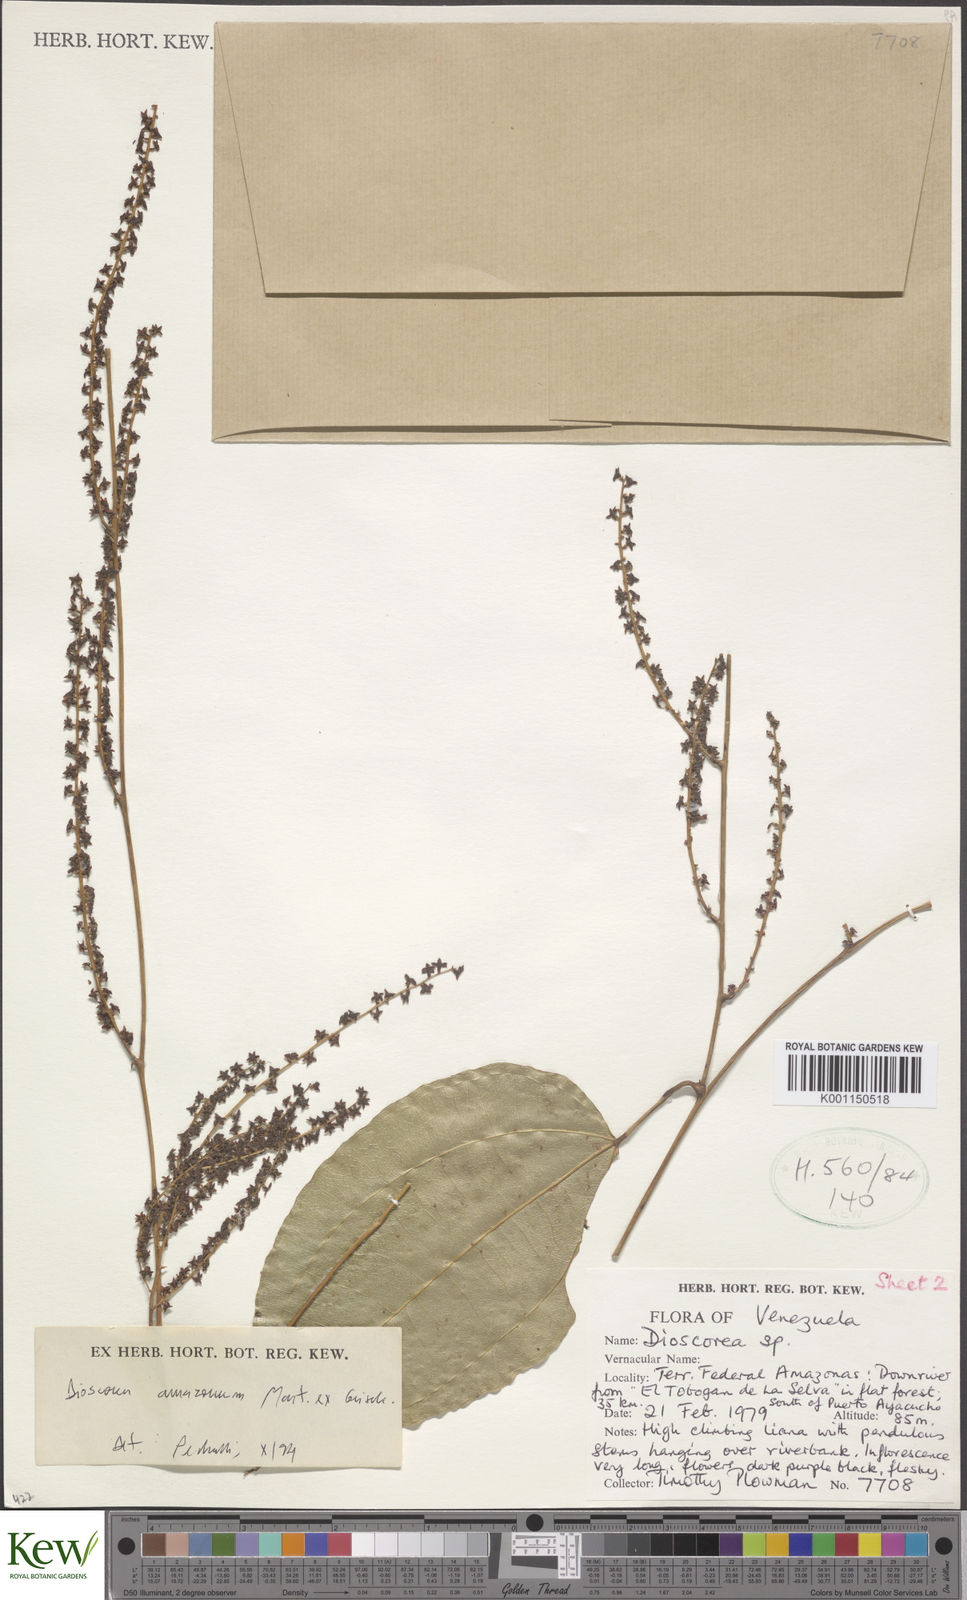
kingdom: Plantae
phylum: Tracheophyta
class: Liliopsida
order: Dioscoreales
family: Dioscoreaceae
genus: Dioscorea
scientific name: Dioscorea amazonum
